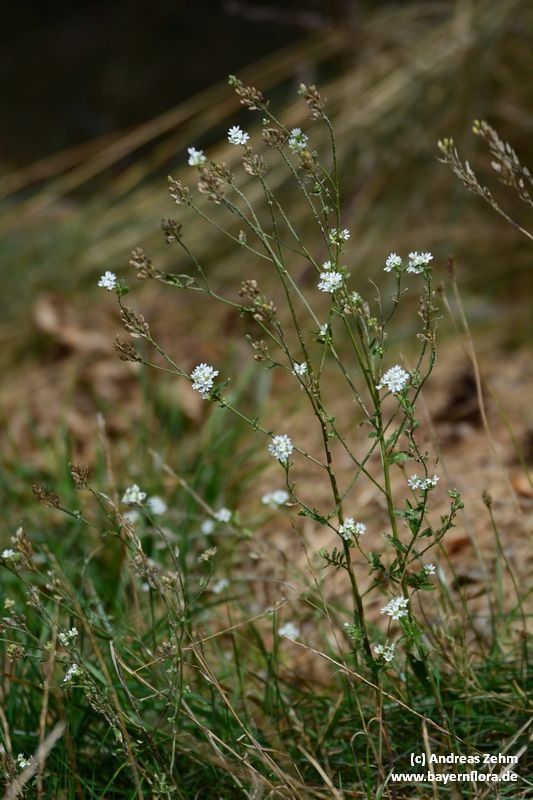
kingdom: Plantae
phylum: Tracheophyta
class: Magnoliopsida
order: Brassicales
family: Brassicaceae
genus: Berteroa
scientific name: Berteroa incana
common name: Hoary alison
